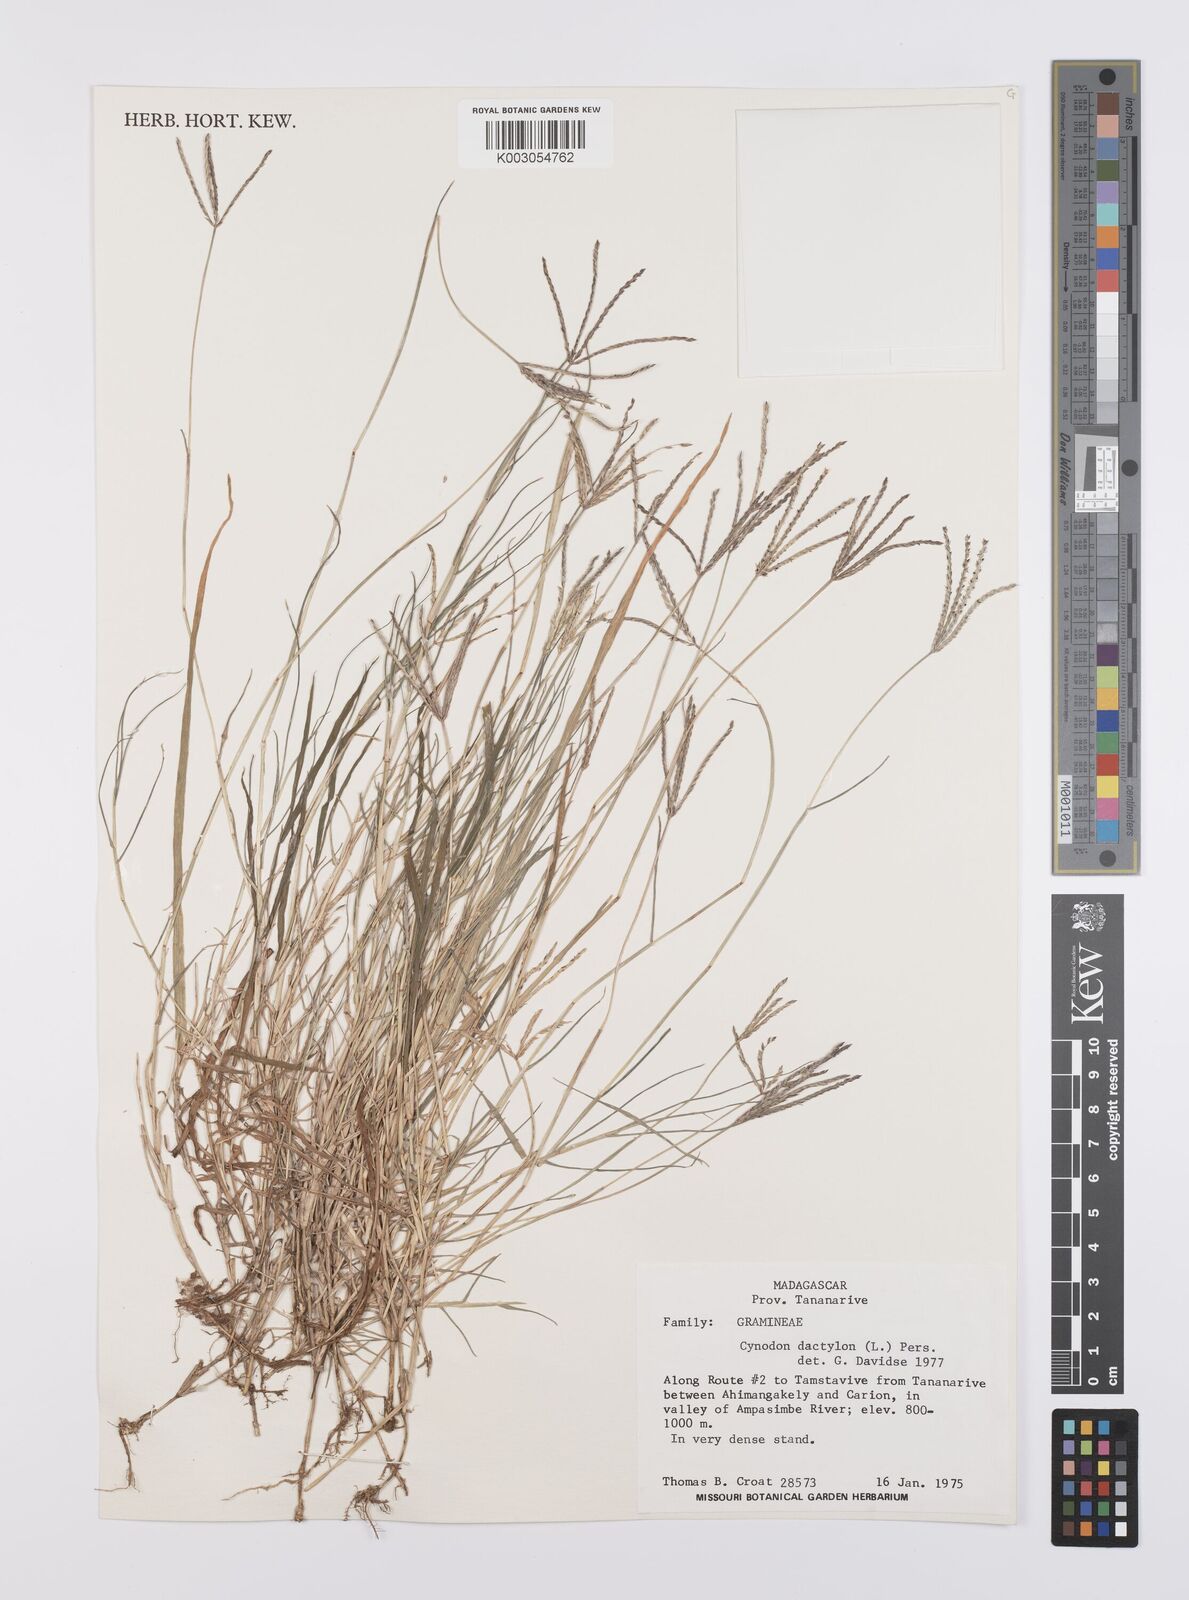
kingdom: Plantae
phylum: Tracheophyta
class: Liliopsida
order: Poales
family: Poaceae
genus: Cynodon
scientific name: Cynodon dactylon
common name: Bermuda grass
